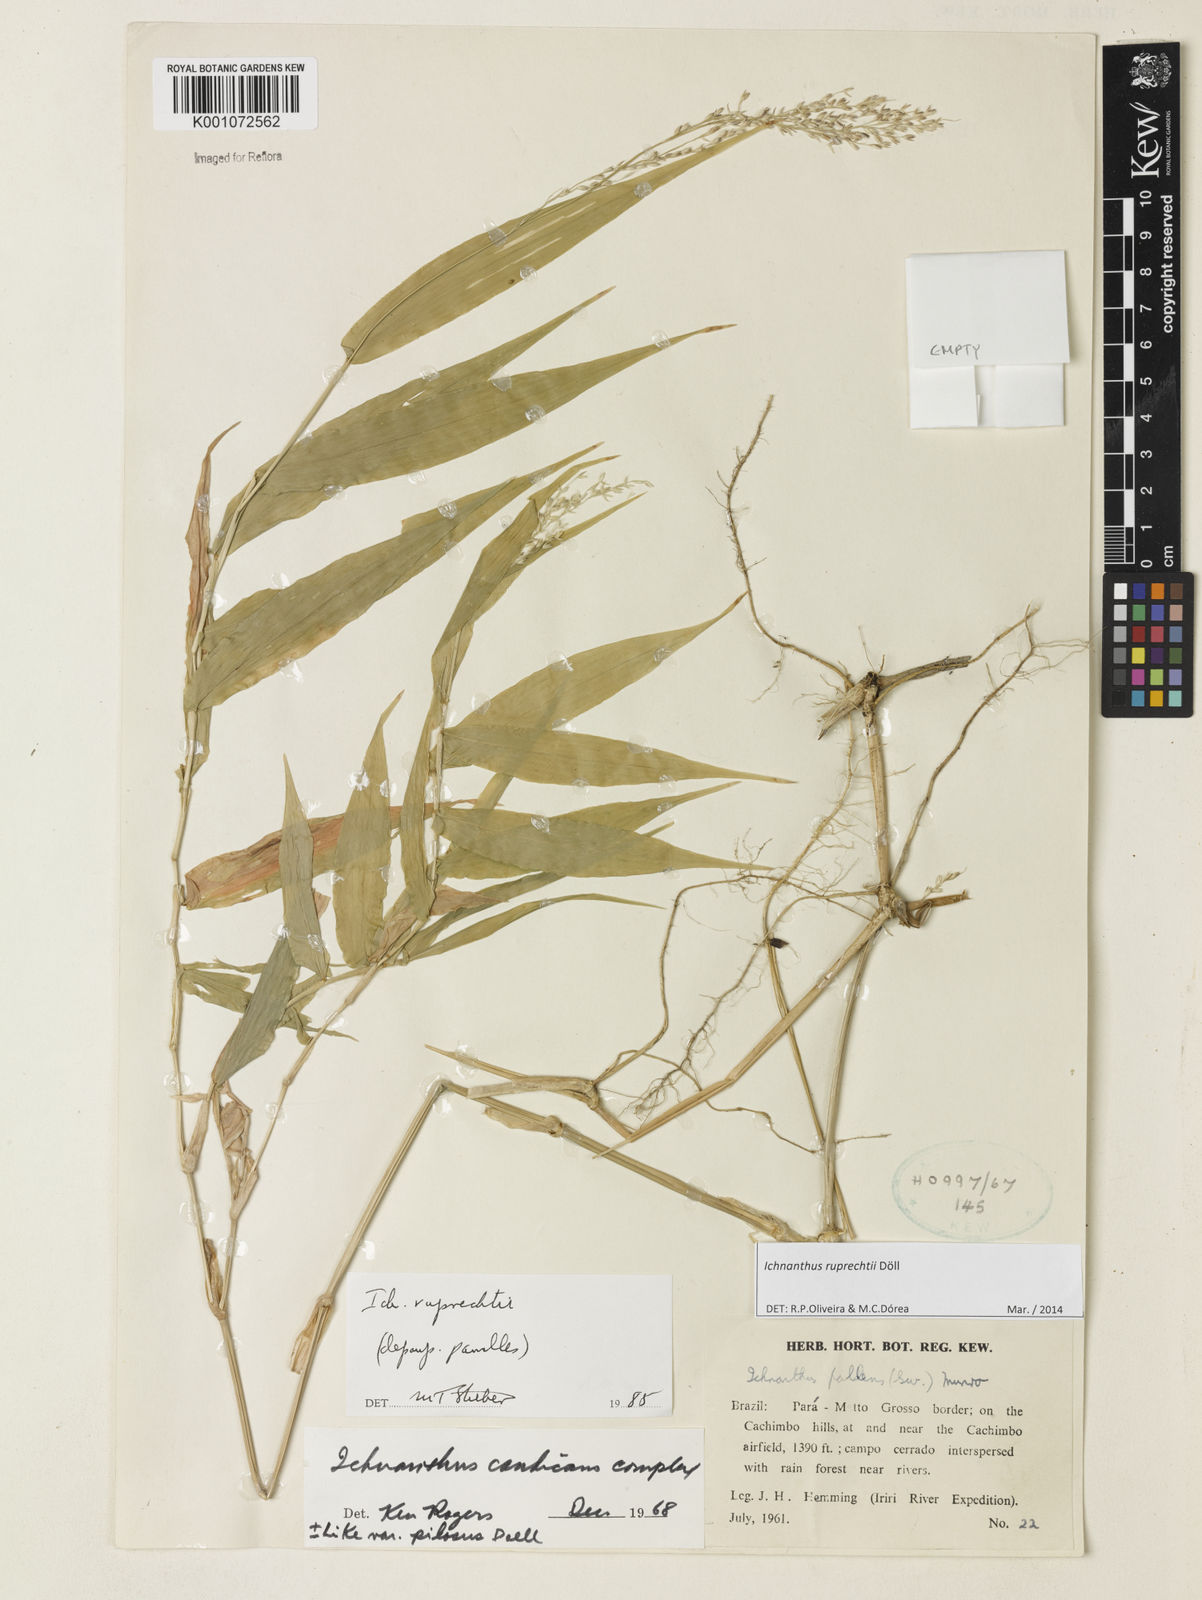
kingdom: Plantae
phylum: Tracheophyta
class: Liliopsida
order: Poales
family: Poaceae
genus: Ichnanthus
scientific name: Ichnanthus
